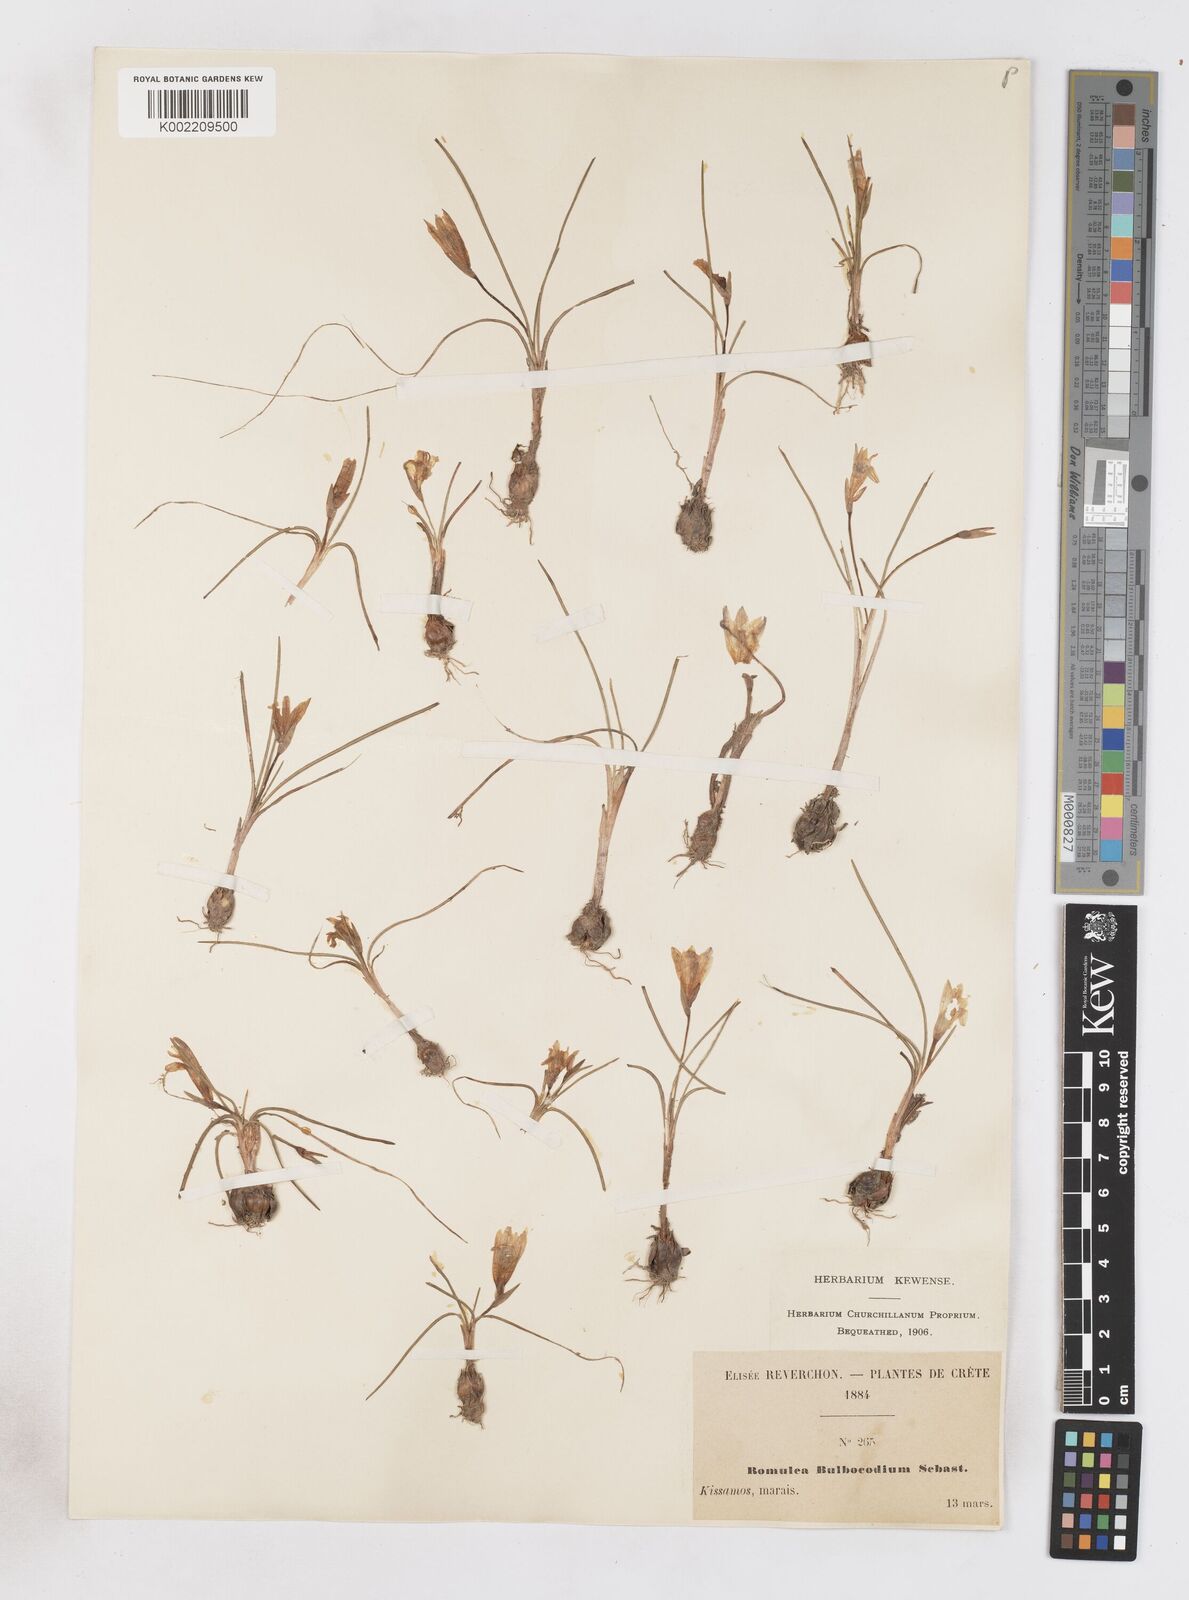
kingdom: Plantae
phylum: Tracheophyta
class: Liliopsida
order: Asparagales
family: Iridaceae
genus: Romulea
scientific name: Romulea bulbocodium
